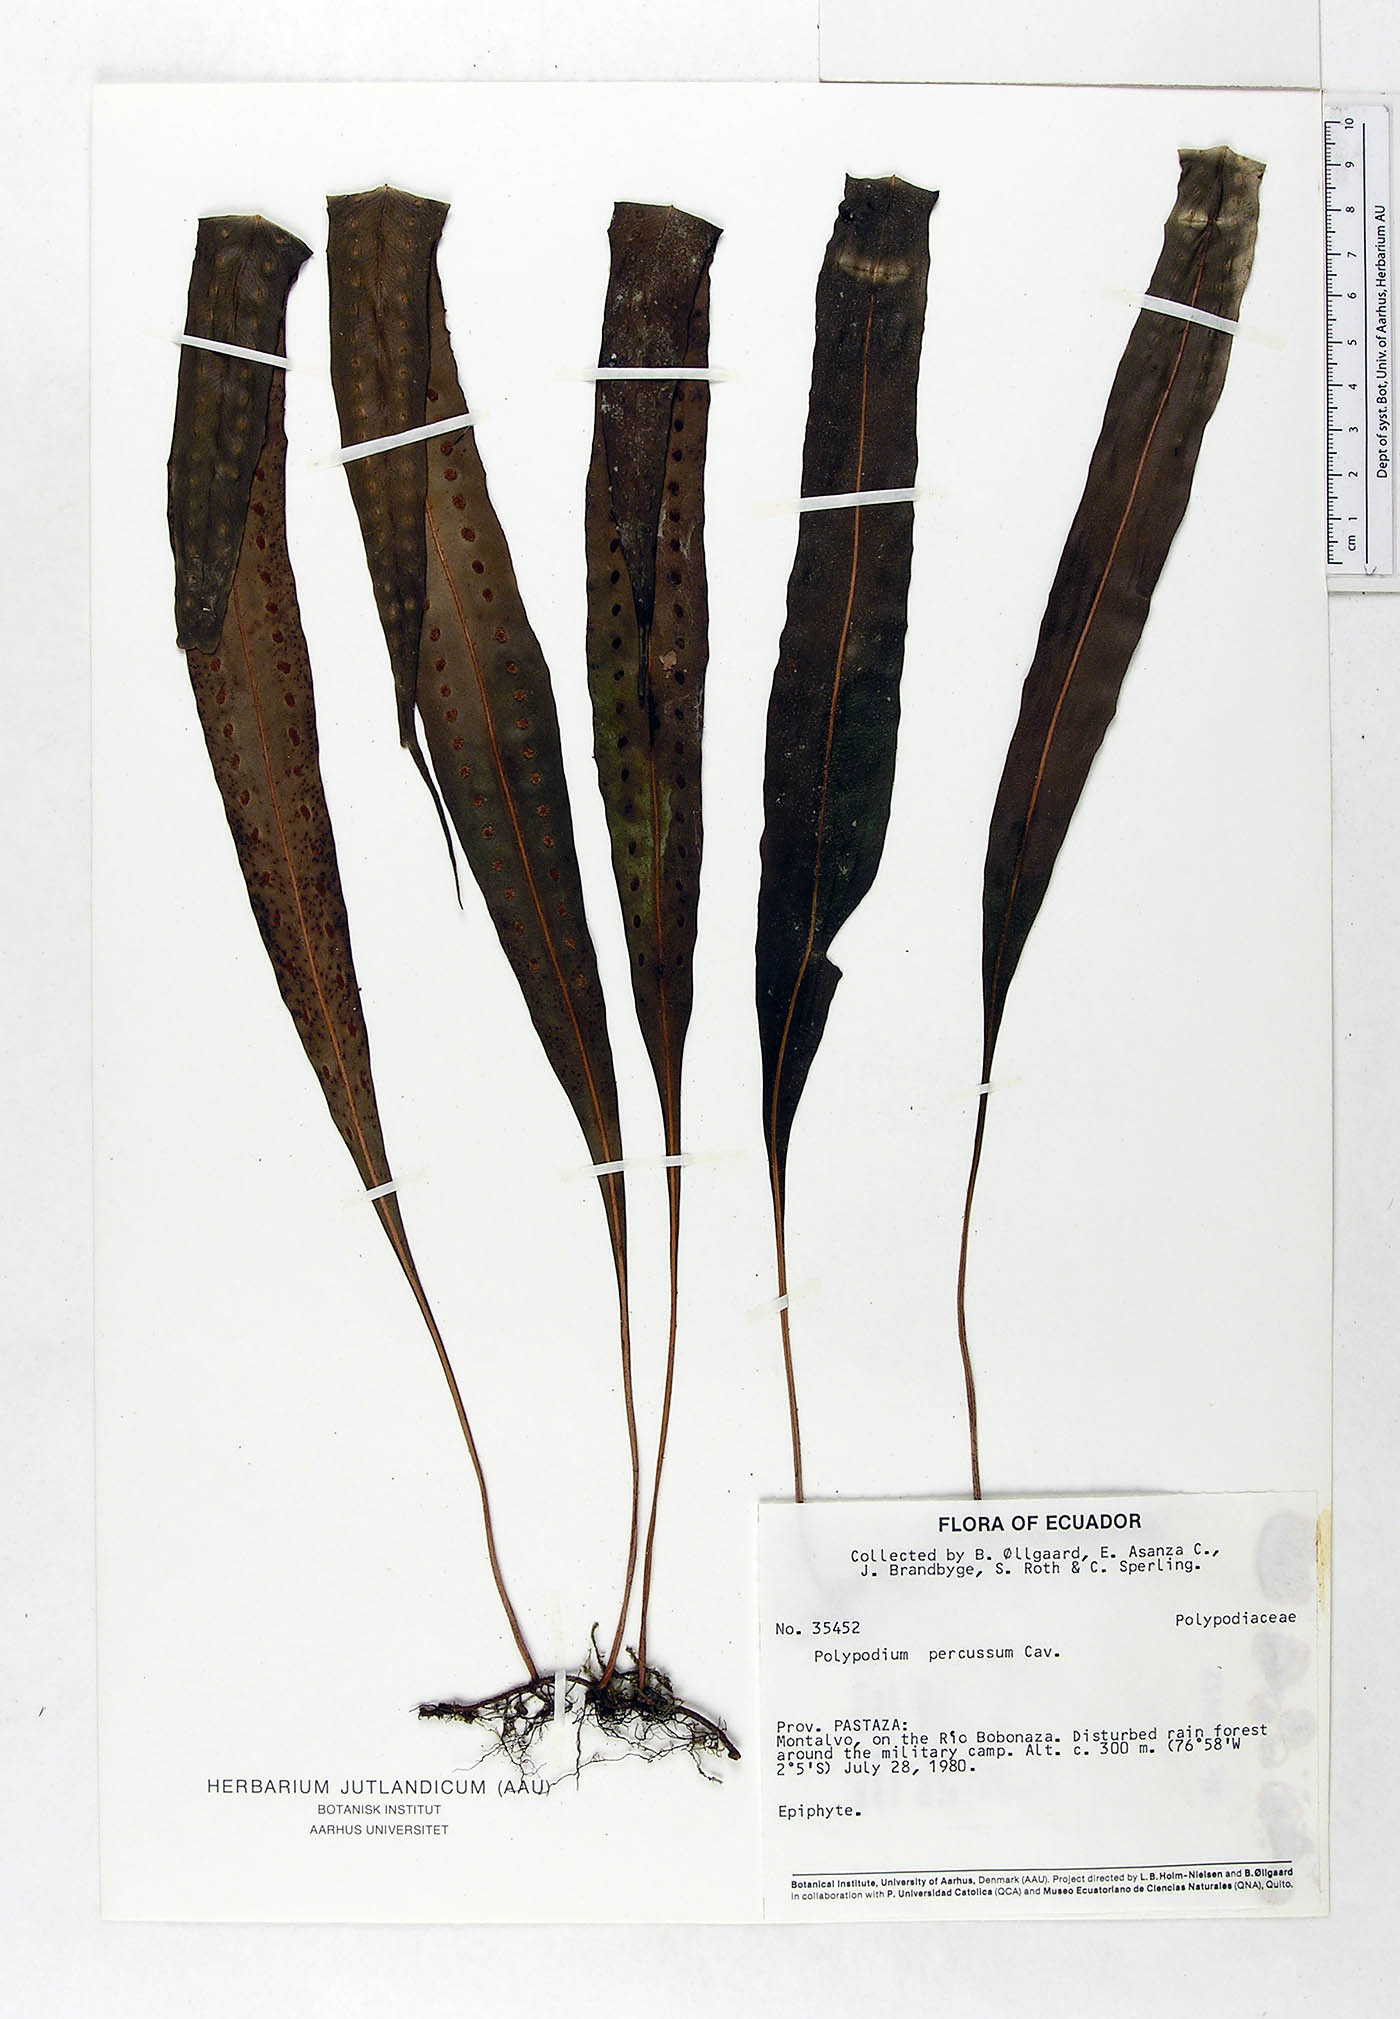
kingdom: Plantae
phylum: Tracheophyta
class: Polypodiopsida
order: Polypodiales
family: Polypodiaceae
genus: Microgramma
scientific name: Microgramma percussa
